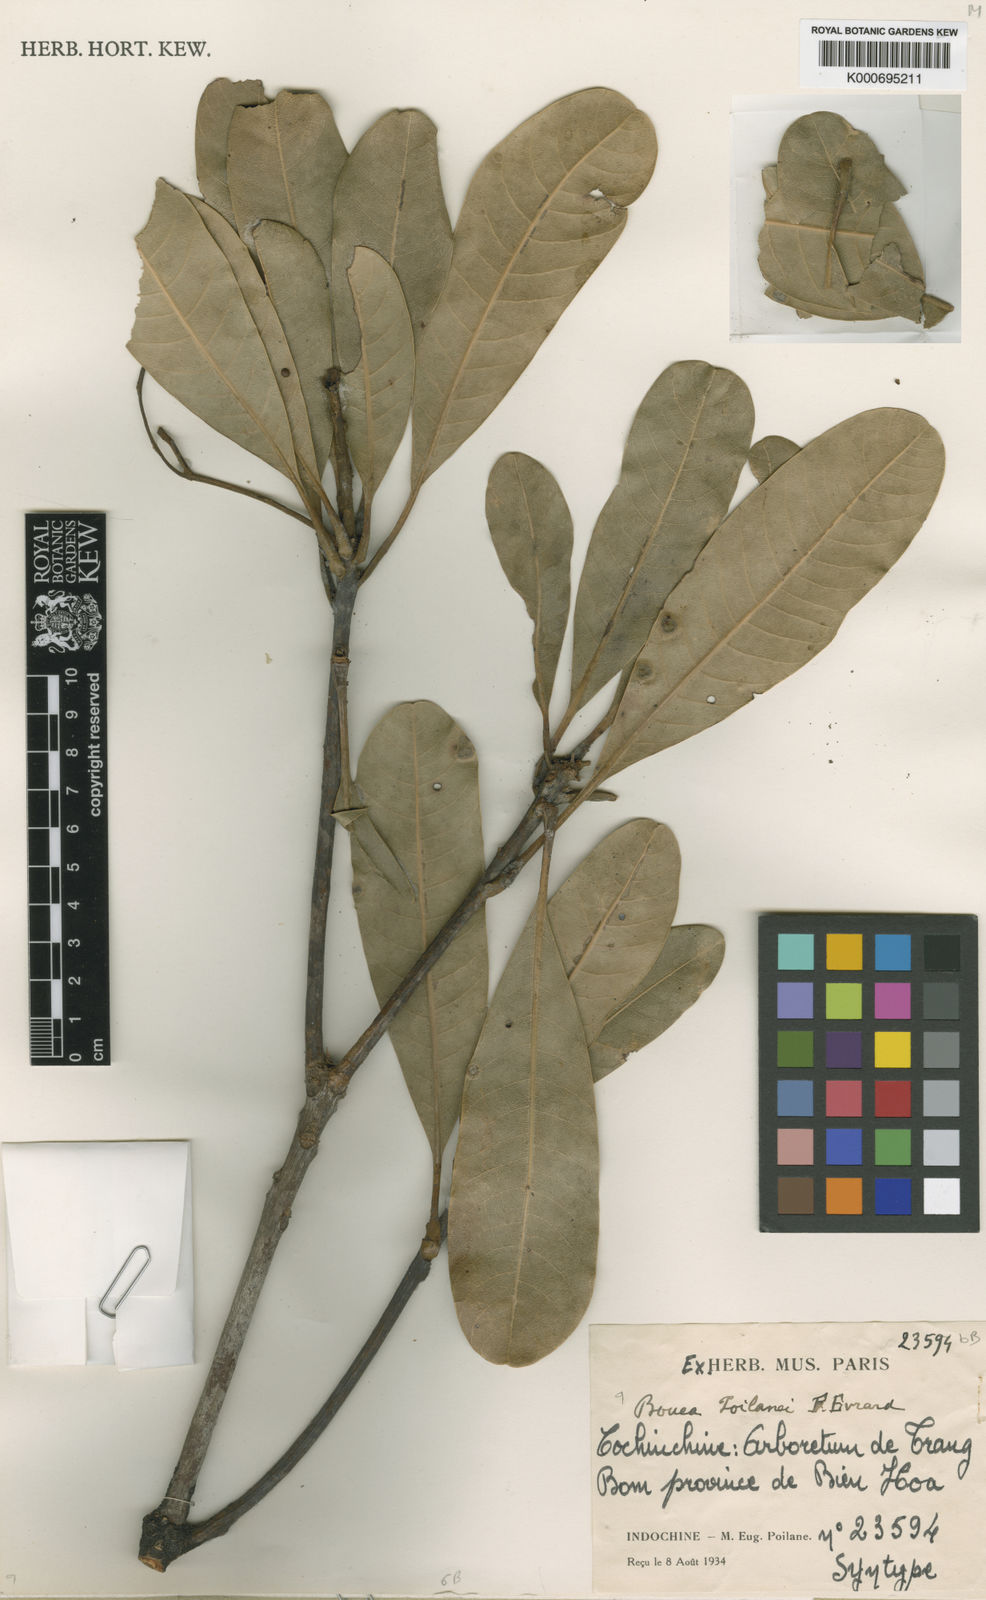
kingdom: Plantae
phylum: Tracheophyta
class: Magnoliopsida
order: Sapindales
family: Anacardiaceae
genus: Bouea
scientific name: Bouea poilanei
